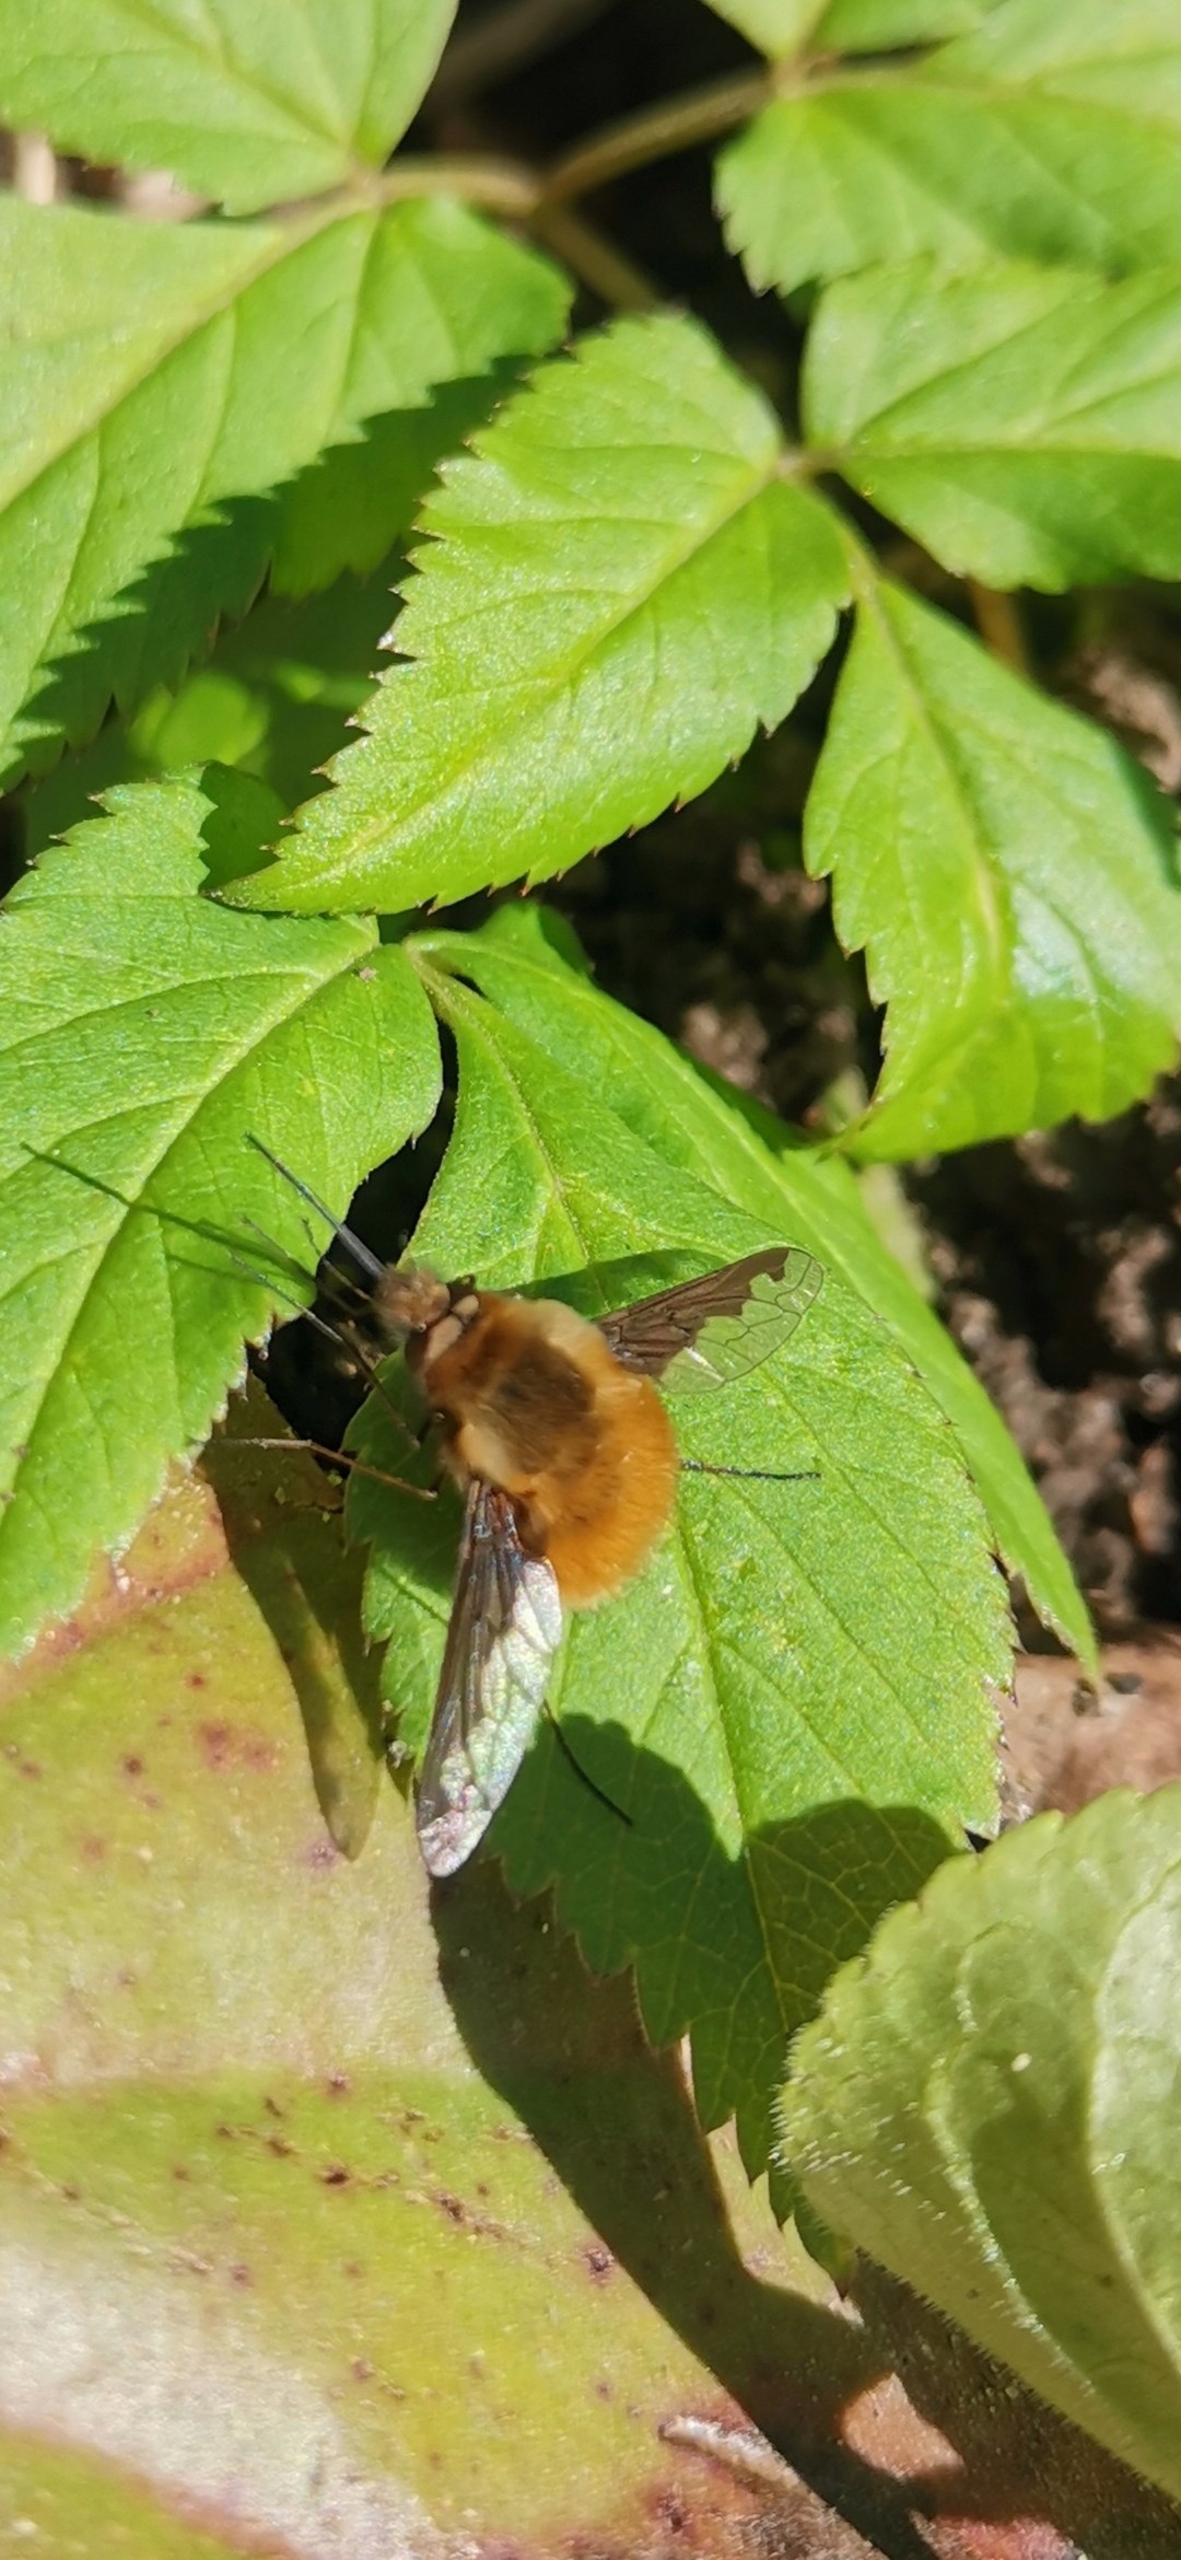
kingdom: Animalia
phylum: Arthropoda
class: Insecta
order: Diptera
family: Bombyliidae
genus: Bombylius
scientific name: Bombylius major
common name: Stor humleflue
